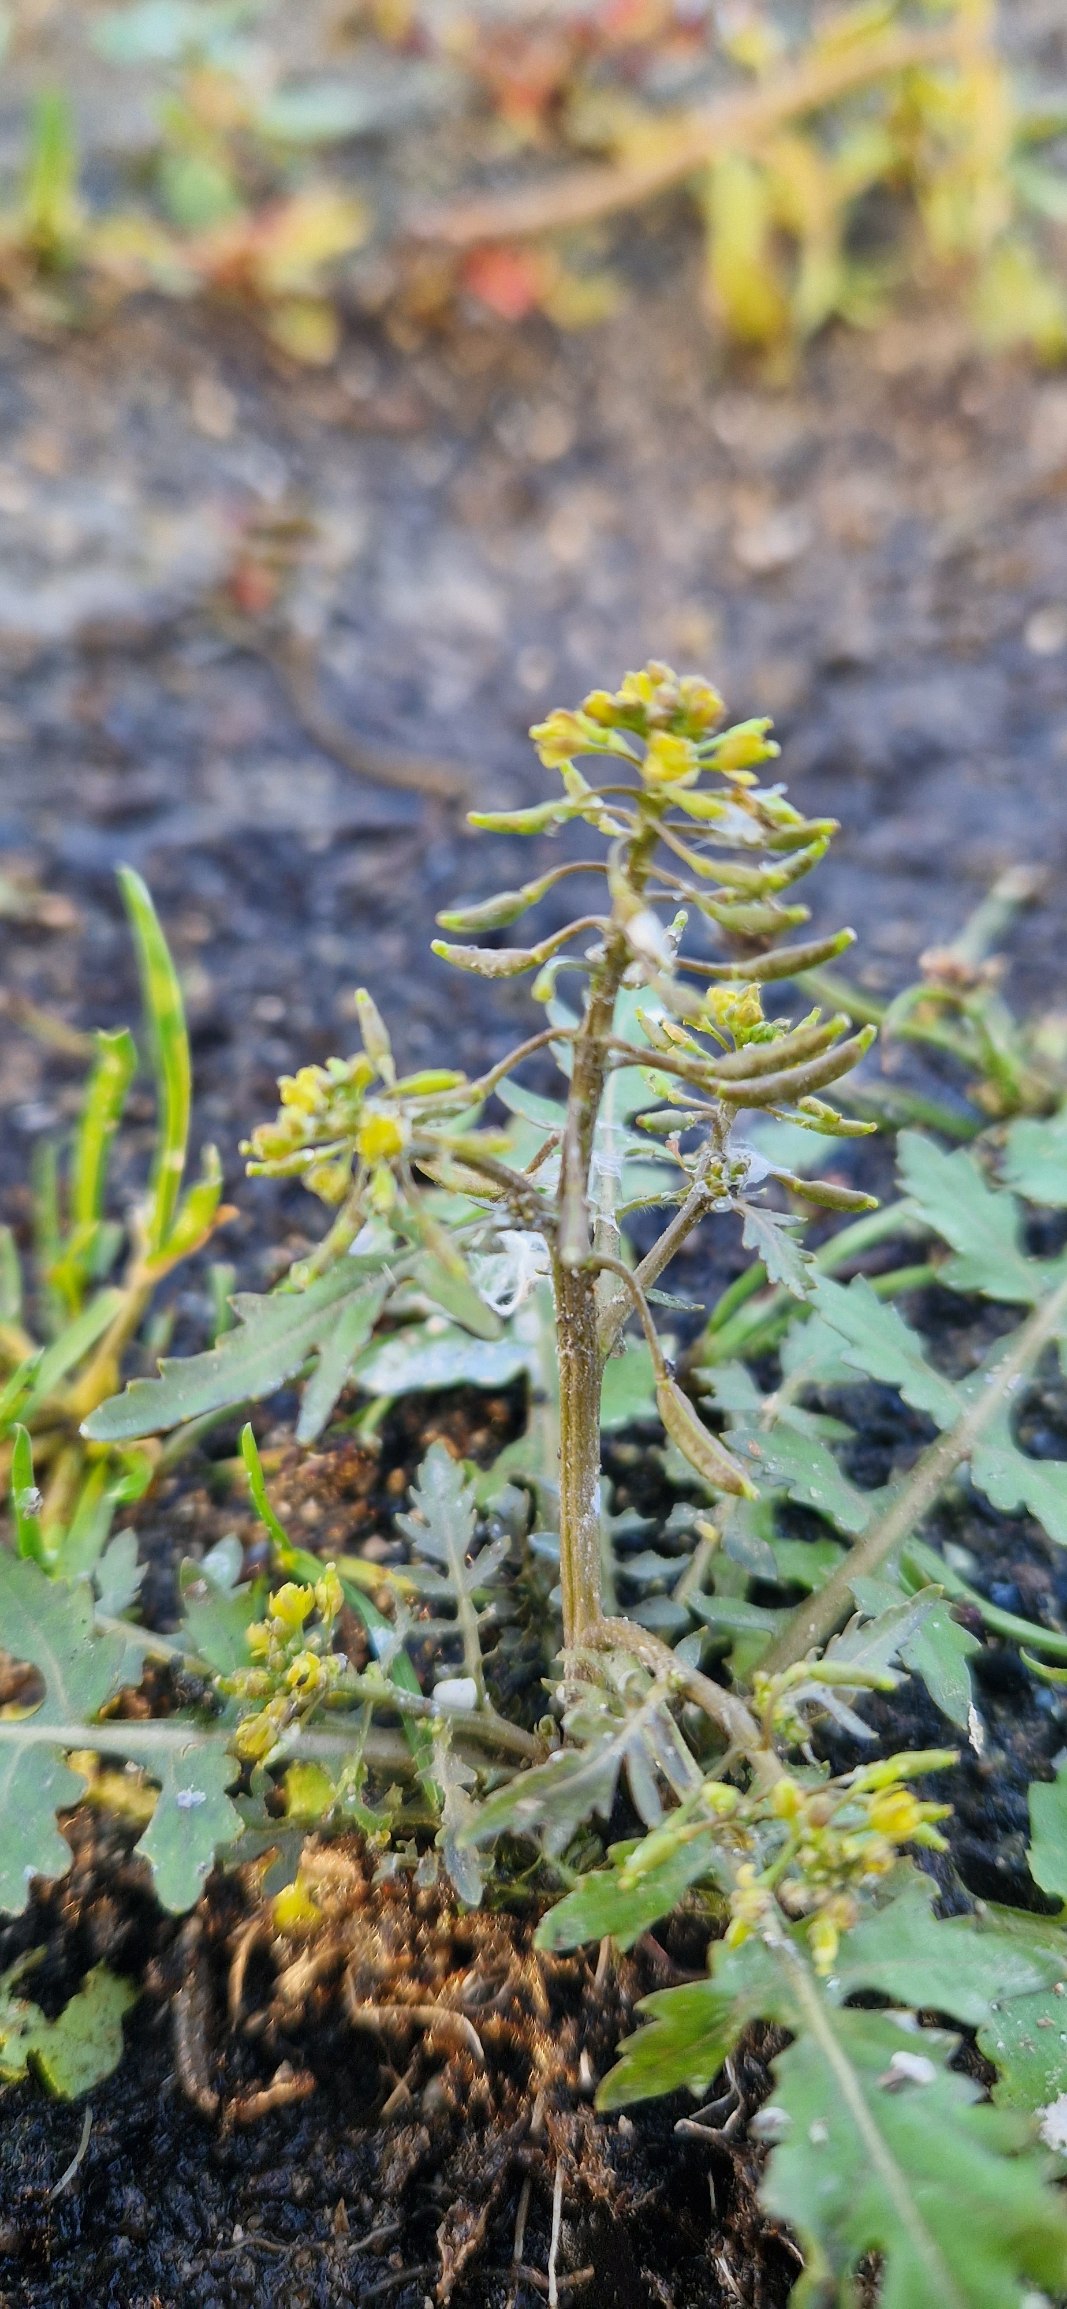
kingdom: Plantae
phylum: Tracheophyta
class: Magnoliopsida
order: Brassicales
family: Brassicaceae
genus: Rorippa
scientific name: Rorippa palustris
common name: Kær-guldkarse
